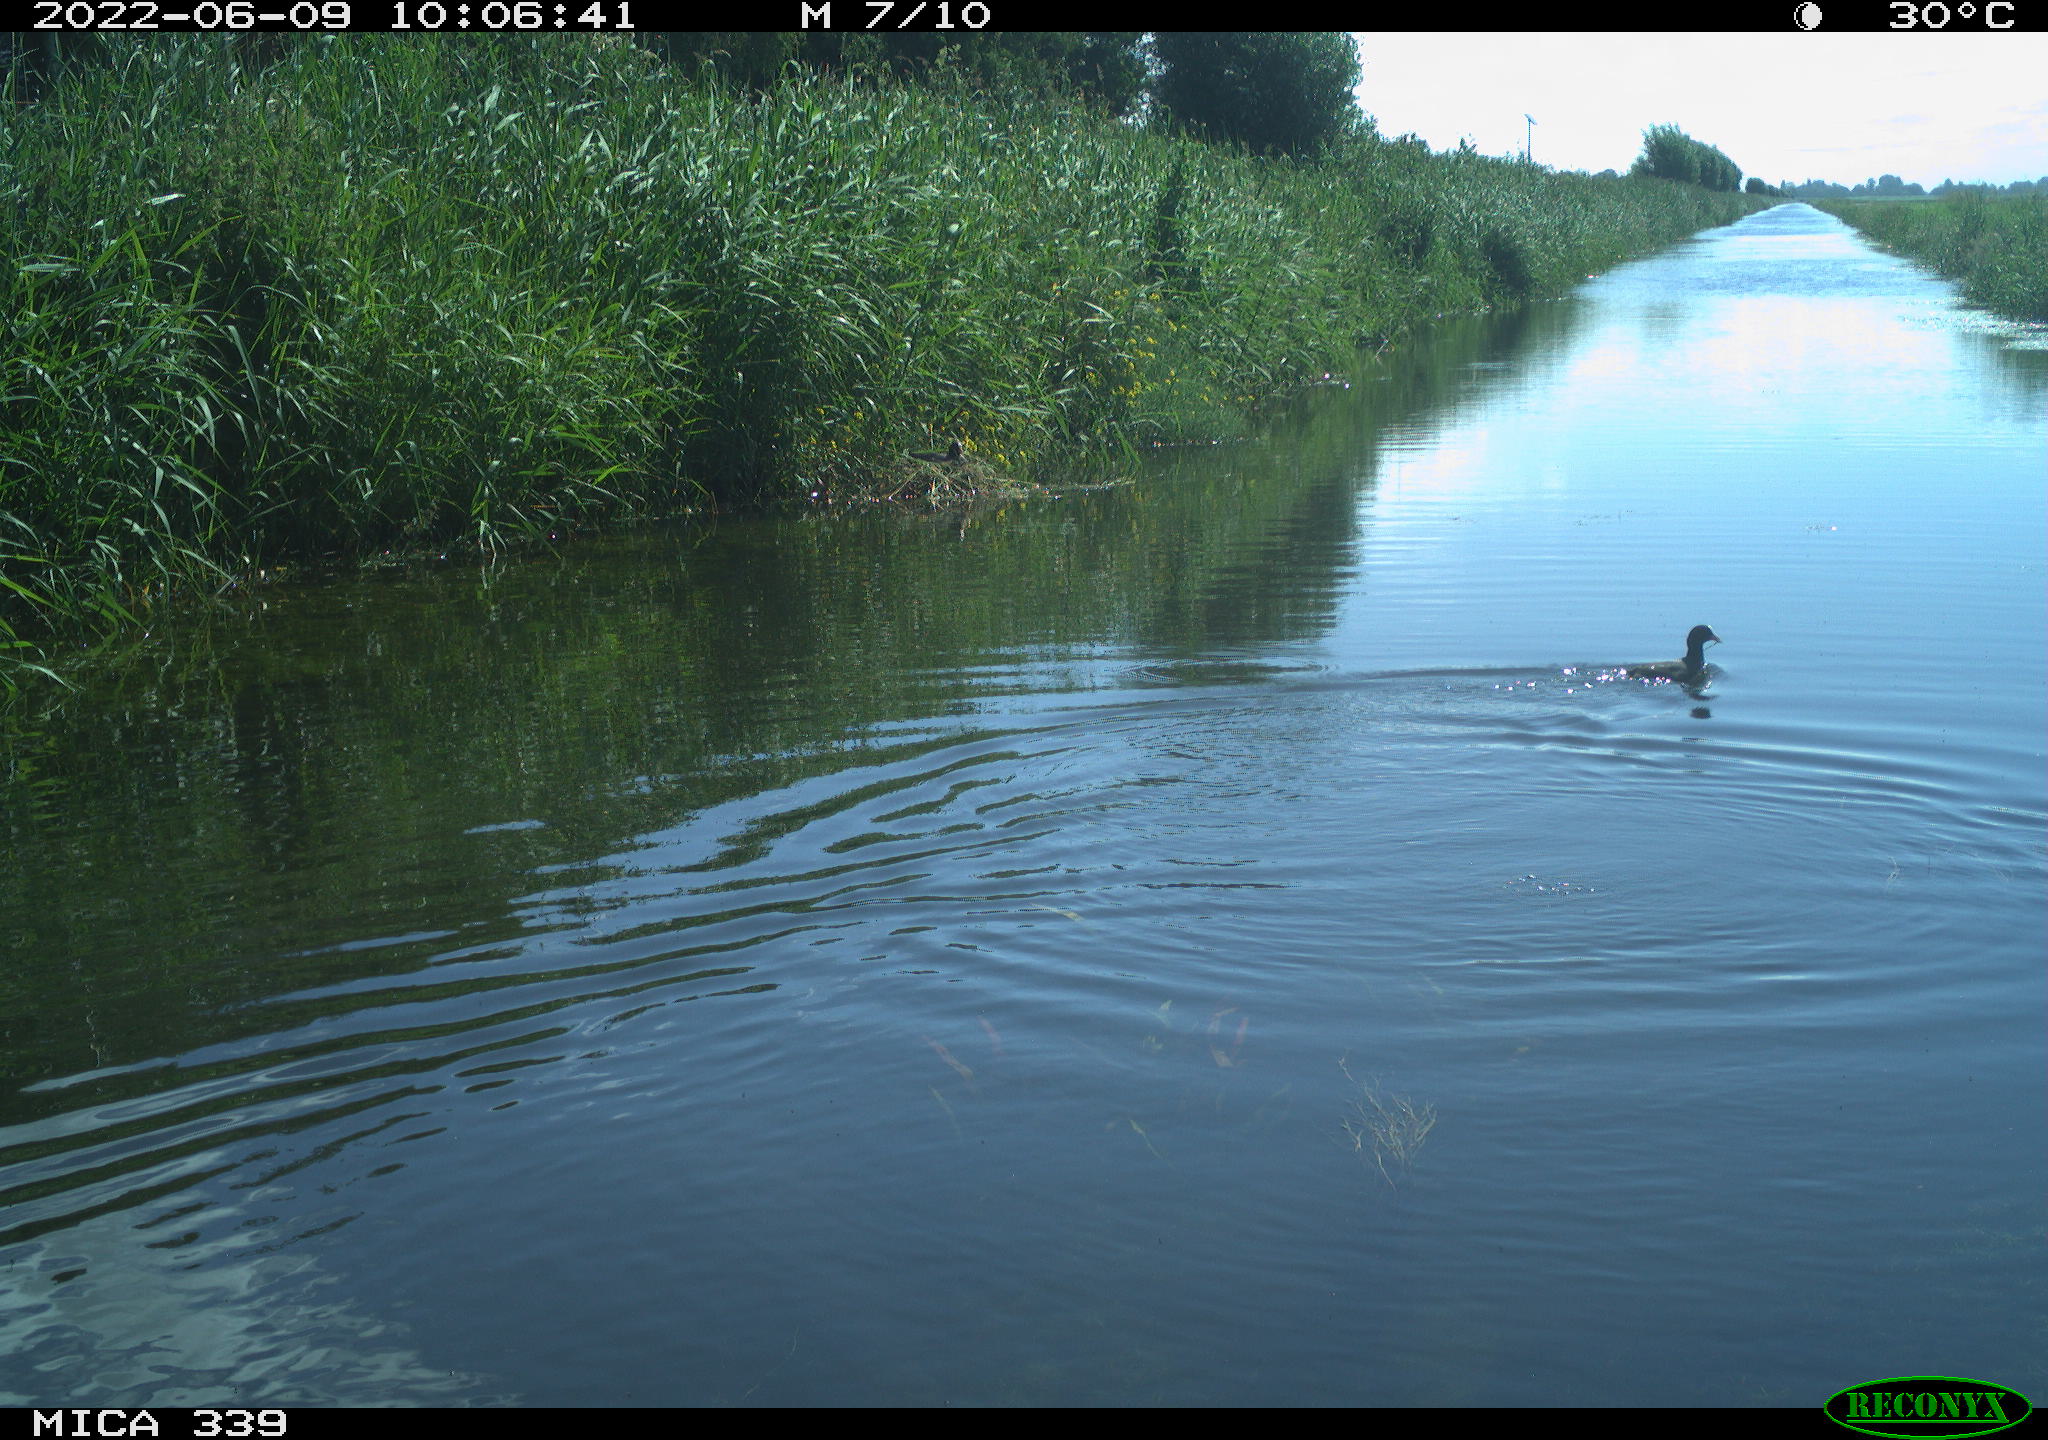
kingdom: Animalia
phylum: Chordata
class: Aves
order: Gruiformes
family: Rallidae
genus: Fulica
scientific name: Fulica atra
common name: Eurasian coot
